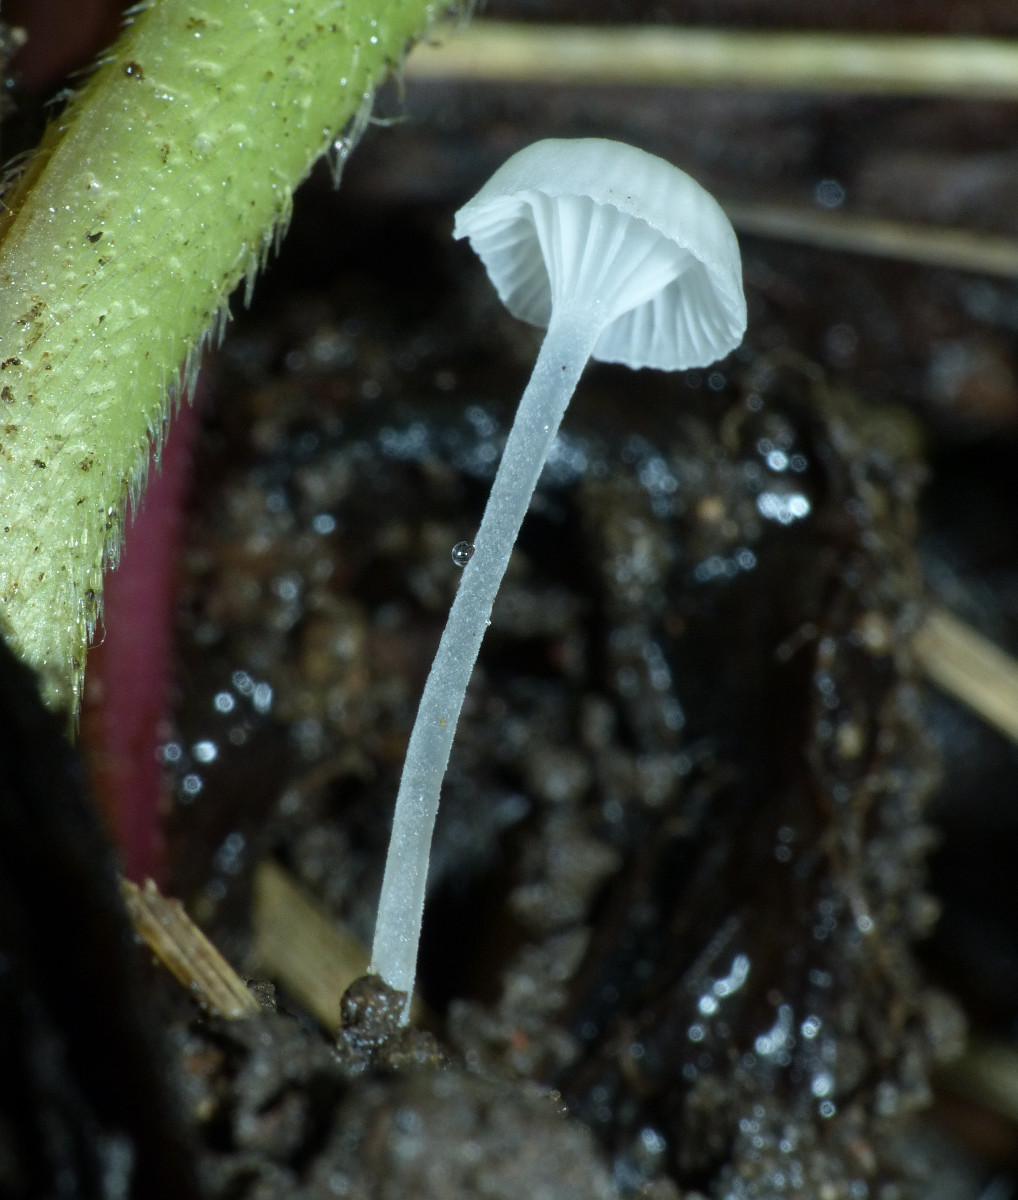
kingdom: Fungi
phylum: Basidiomycota
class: Agaricomycetes
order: Agaricales
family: Mycenaceae
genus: Hemimycena
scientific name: Hemimycena candida
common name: kulsukker-huesvamp
